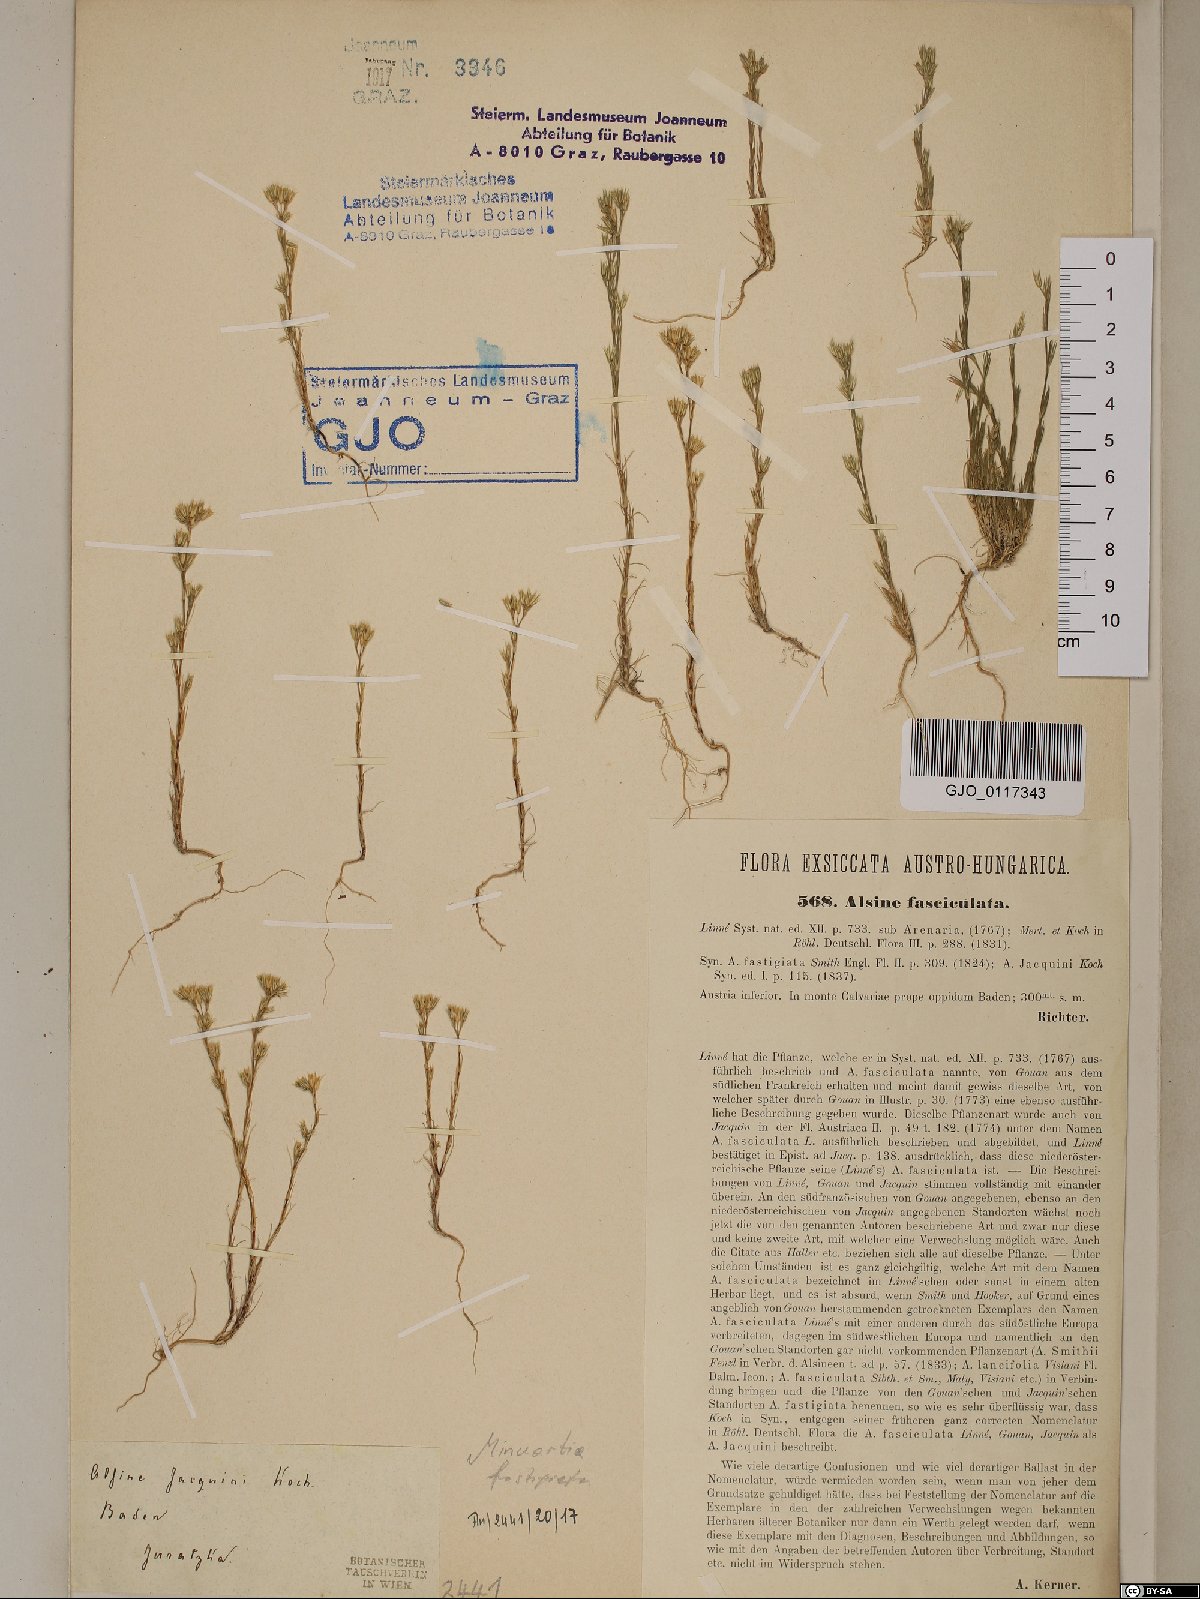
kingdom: Plantae
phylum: Tracheophyta
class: Magnoliopsida
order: Caryophyllales
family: Caryophyllaceae
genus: Minuartia
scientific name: Minuartia mucronata
